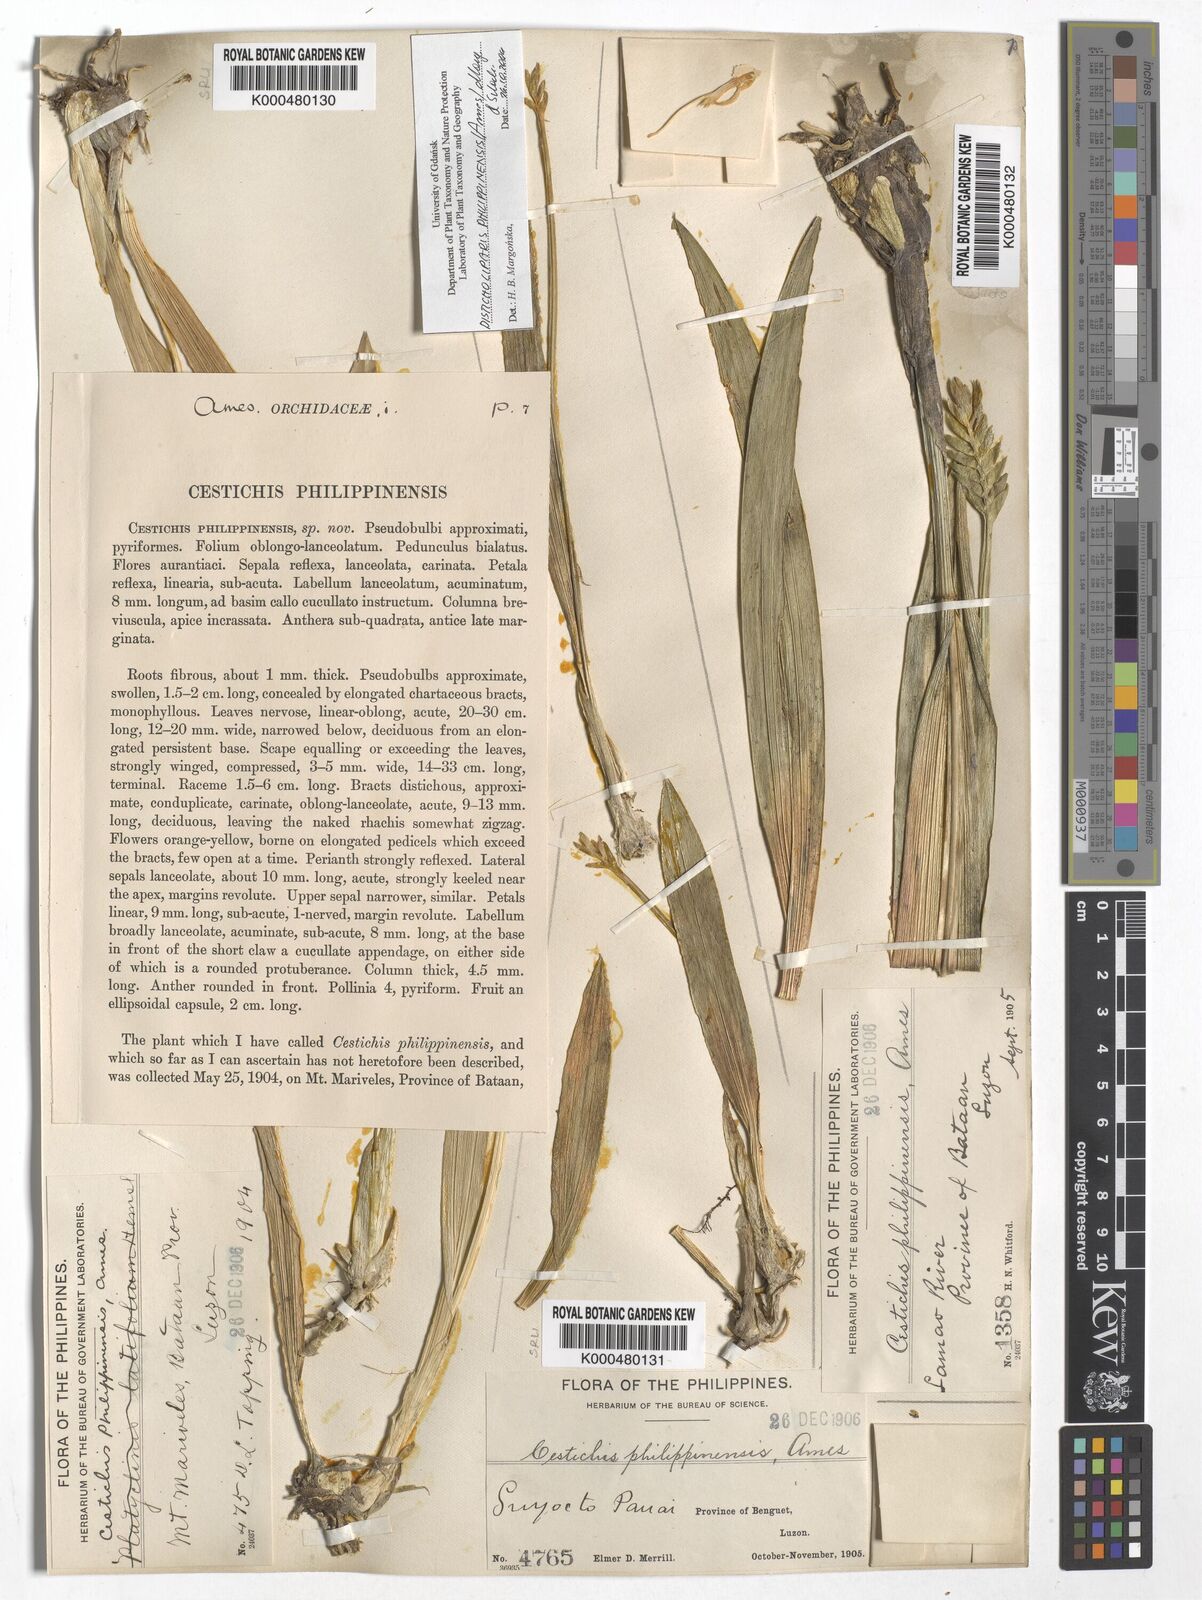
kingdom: Plantae
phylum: Tracheophyta
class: Liliopsida
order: Asparagales
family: Orchidaceae
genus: Liparis
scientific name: Liparis philippinensis
